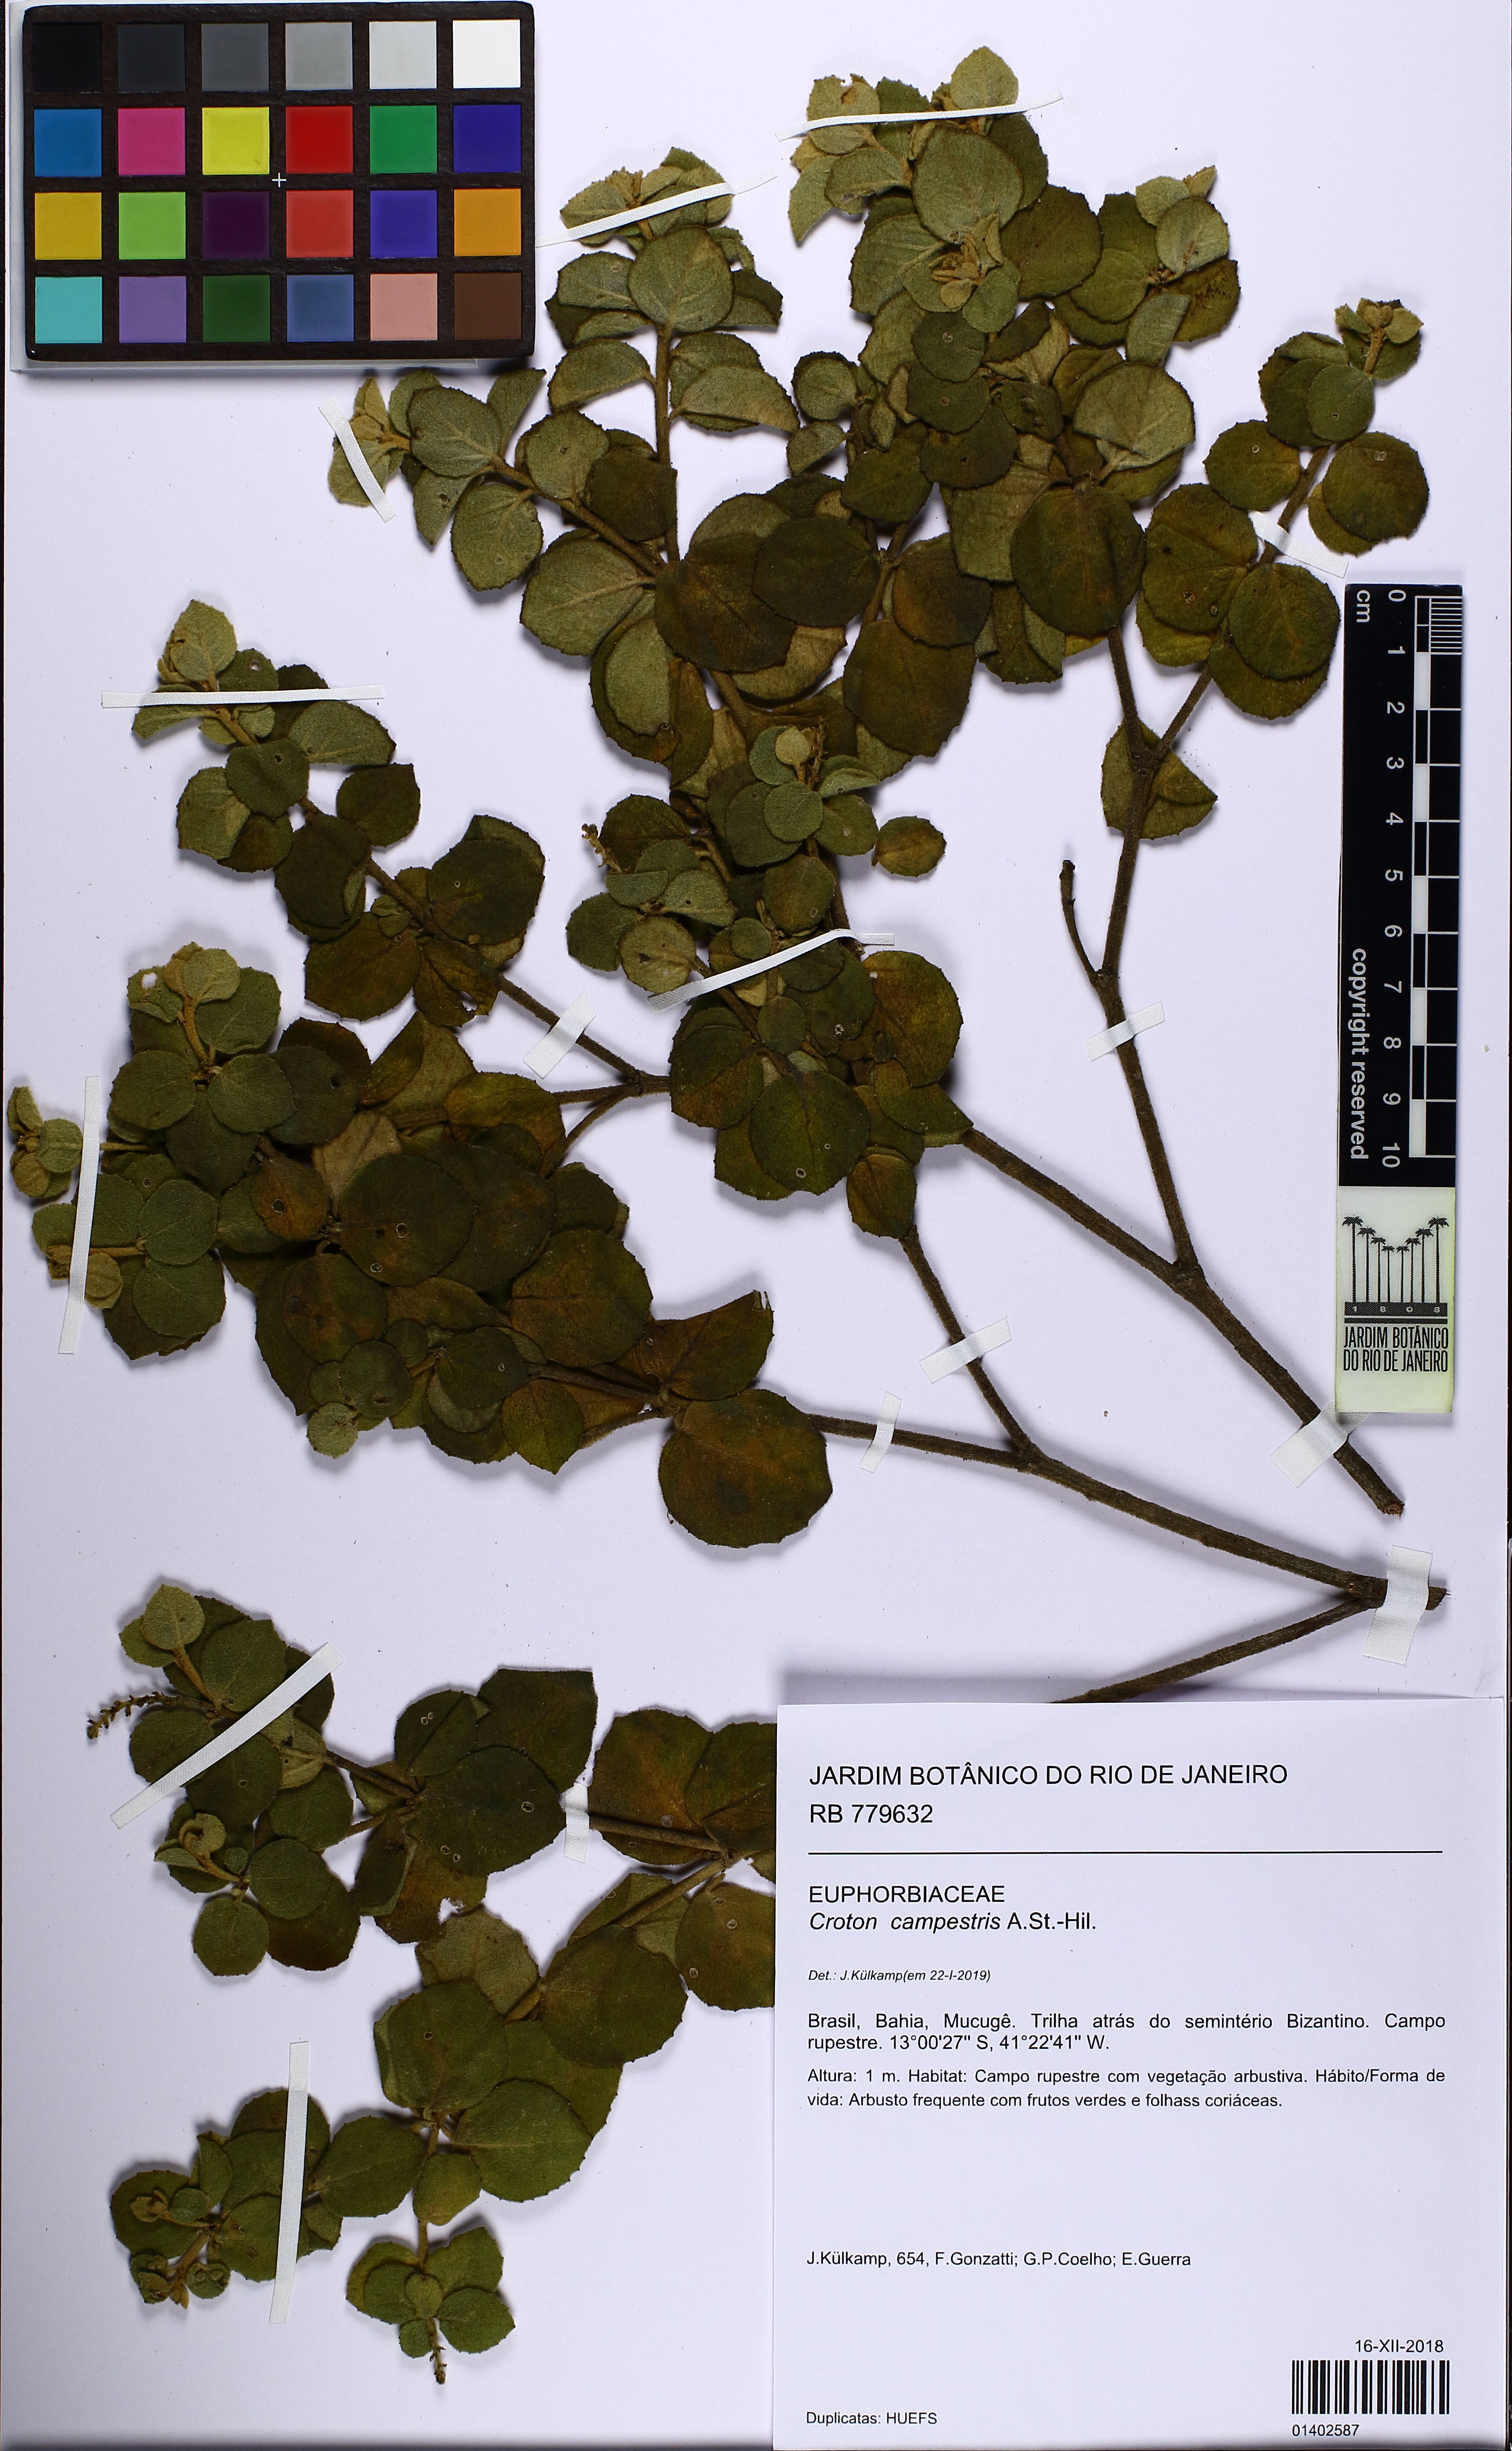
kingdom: Plantae
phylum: Tracheophyta
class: Magnoliopsida
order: Malpighiales
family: Euphorbiaceae
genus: Croton
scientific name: Croton campestris
